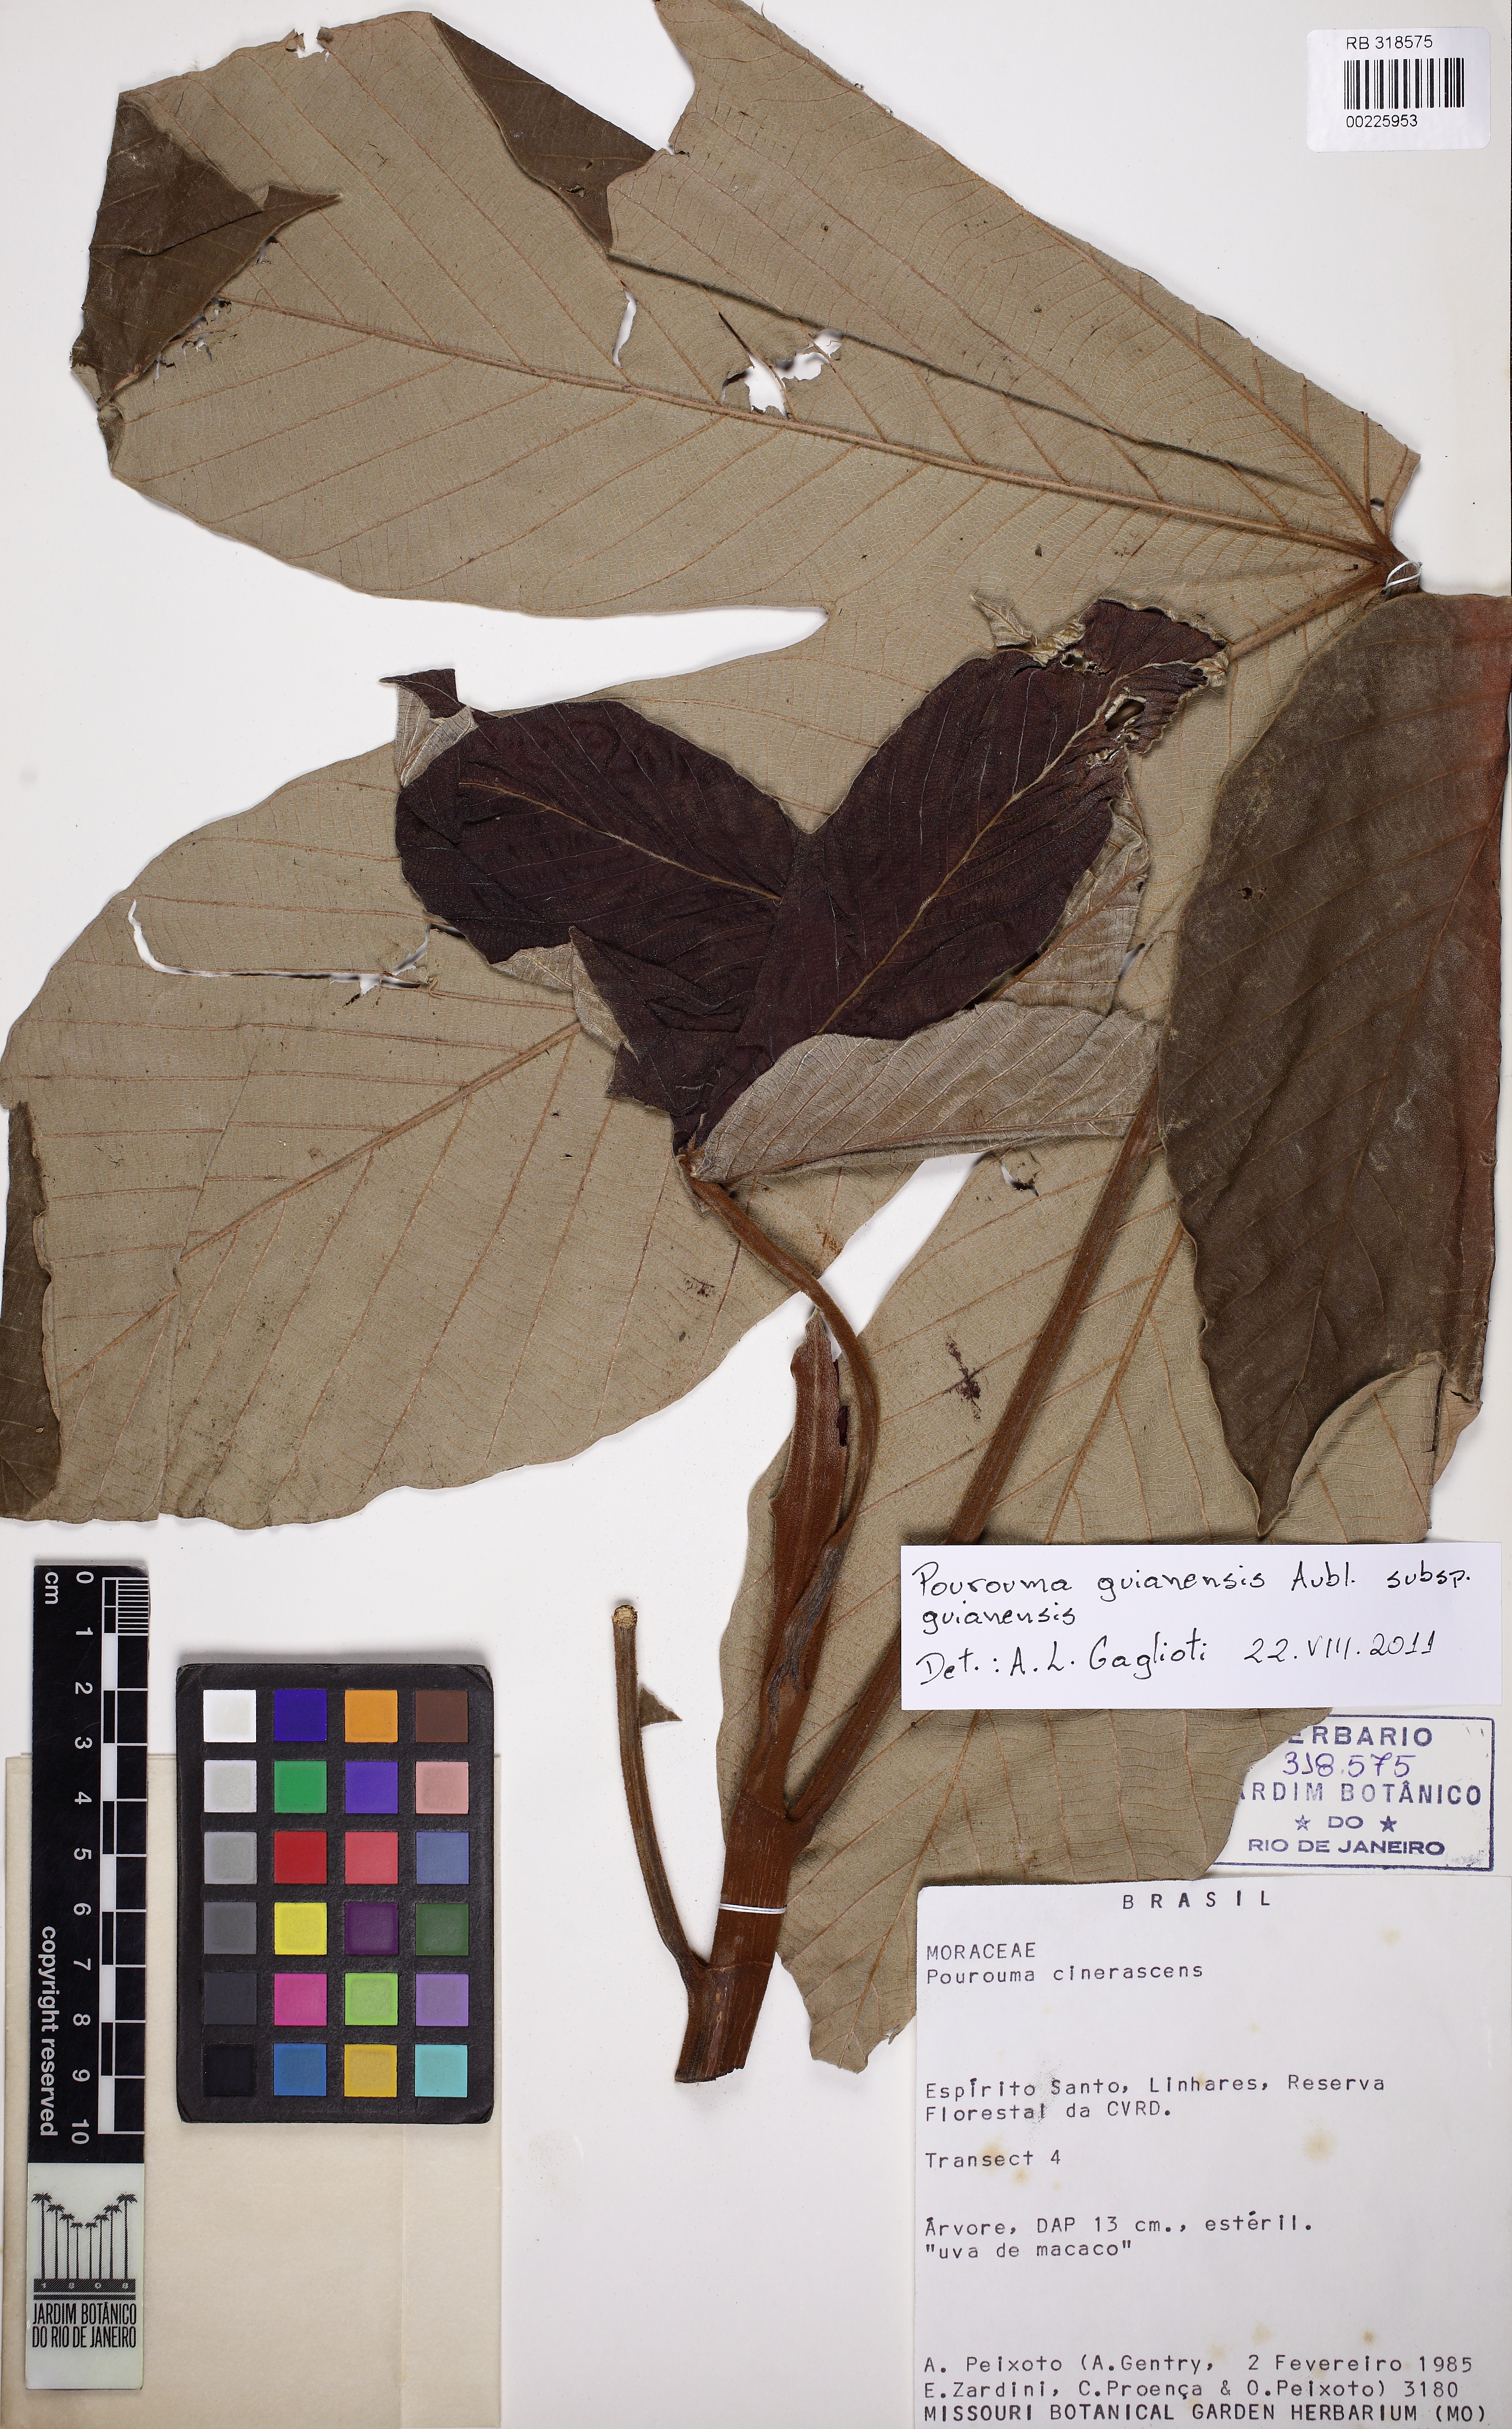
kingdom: Plantae
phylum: Tracheophyta
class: Magnoliopsida
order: Rosales
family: Urticaceae
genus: Pourouma
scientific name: Pourouma guianensis
